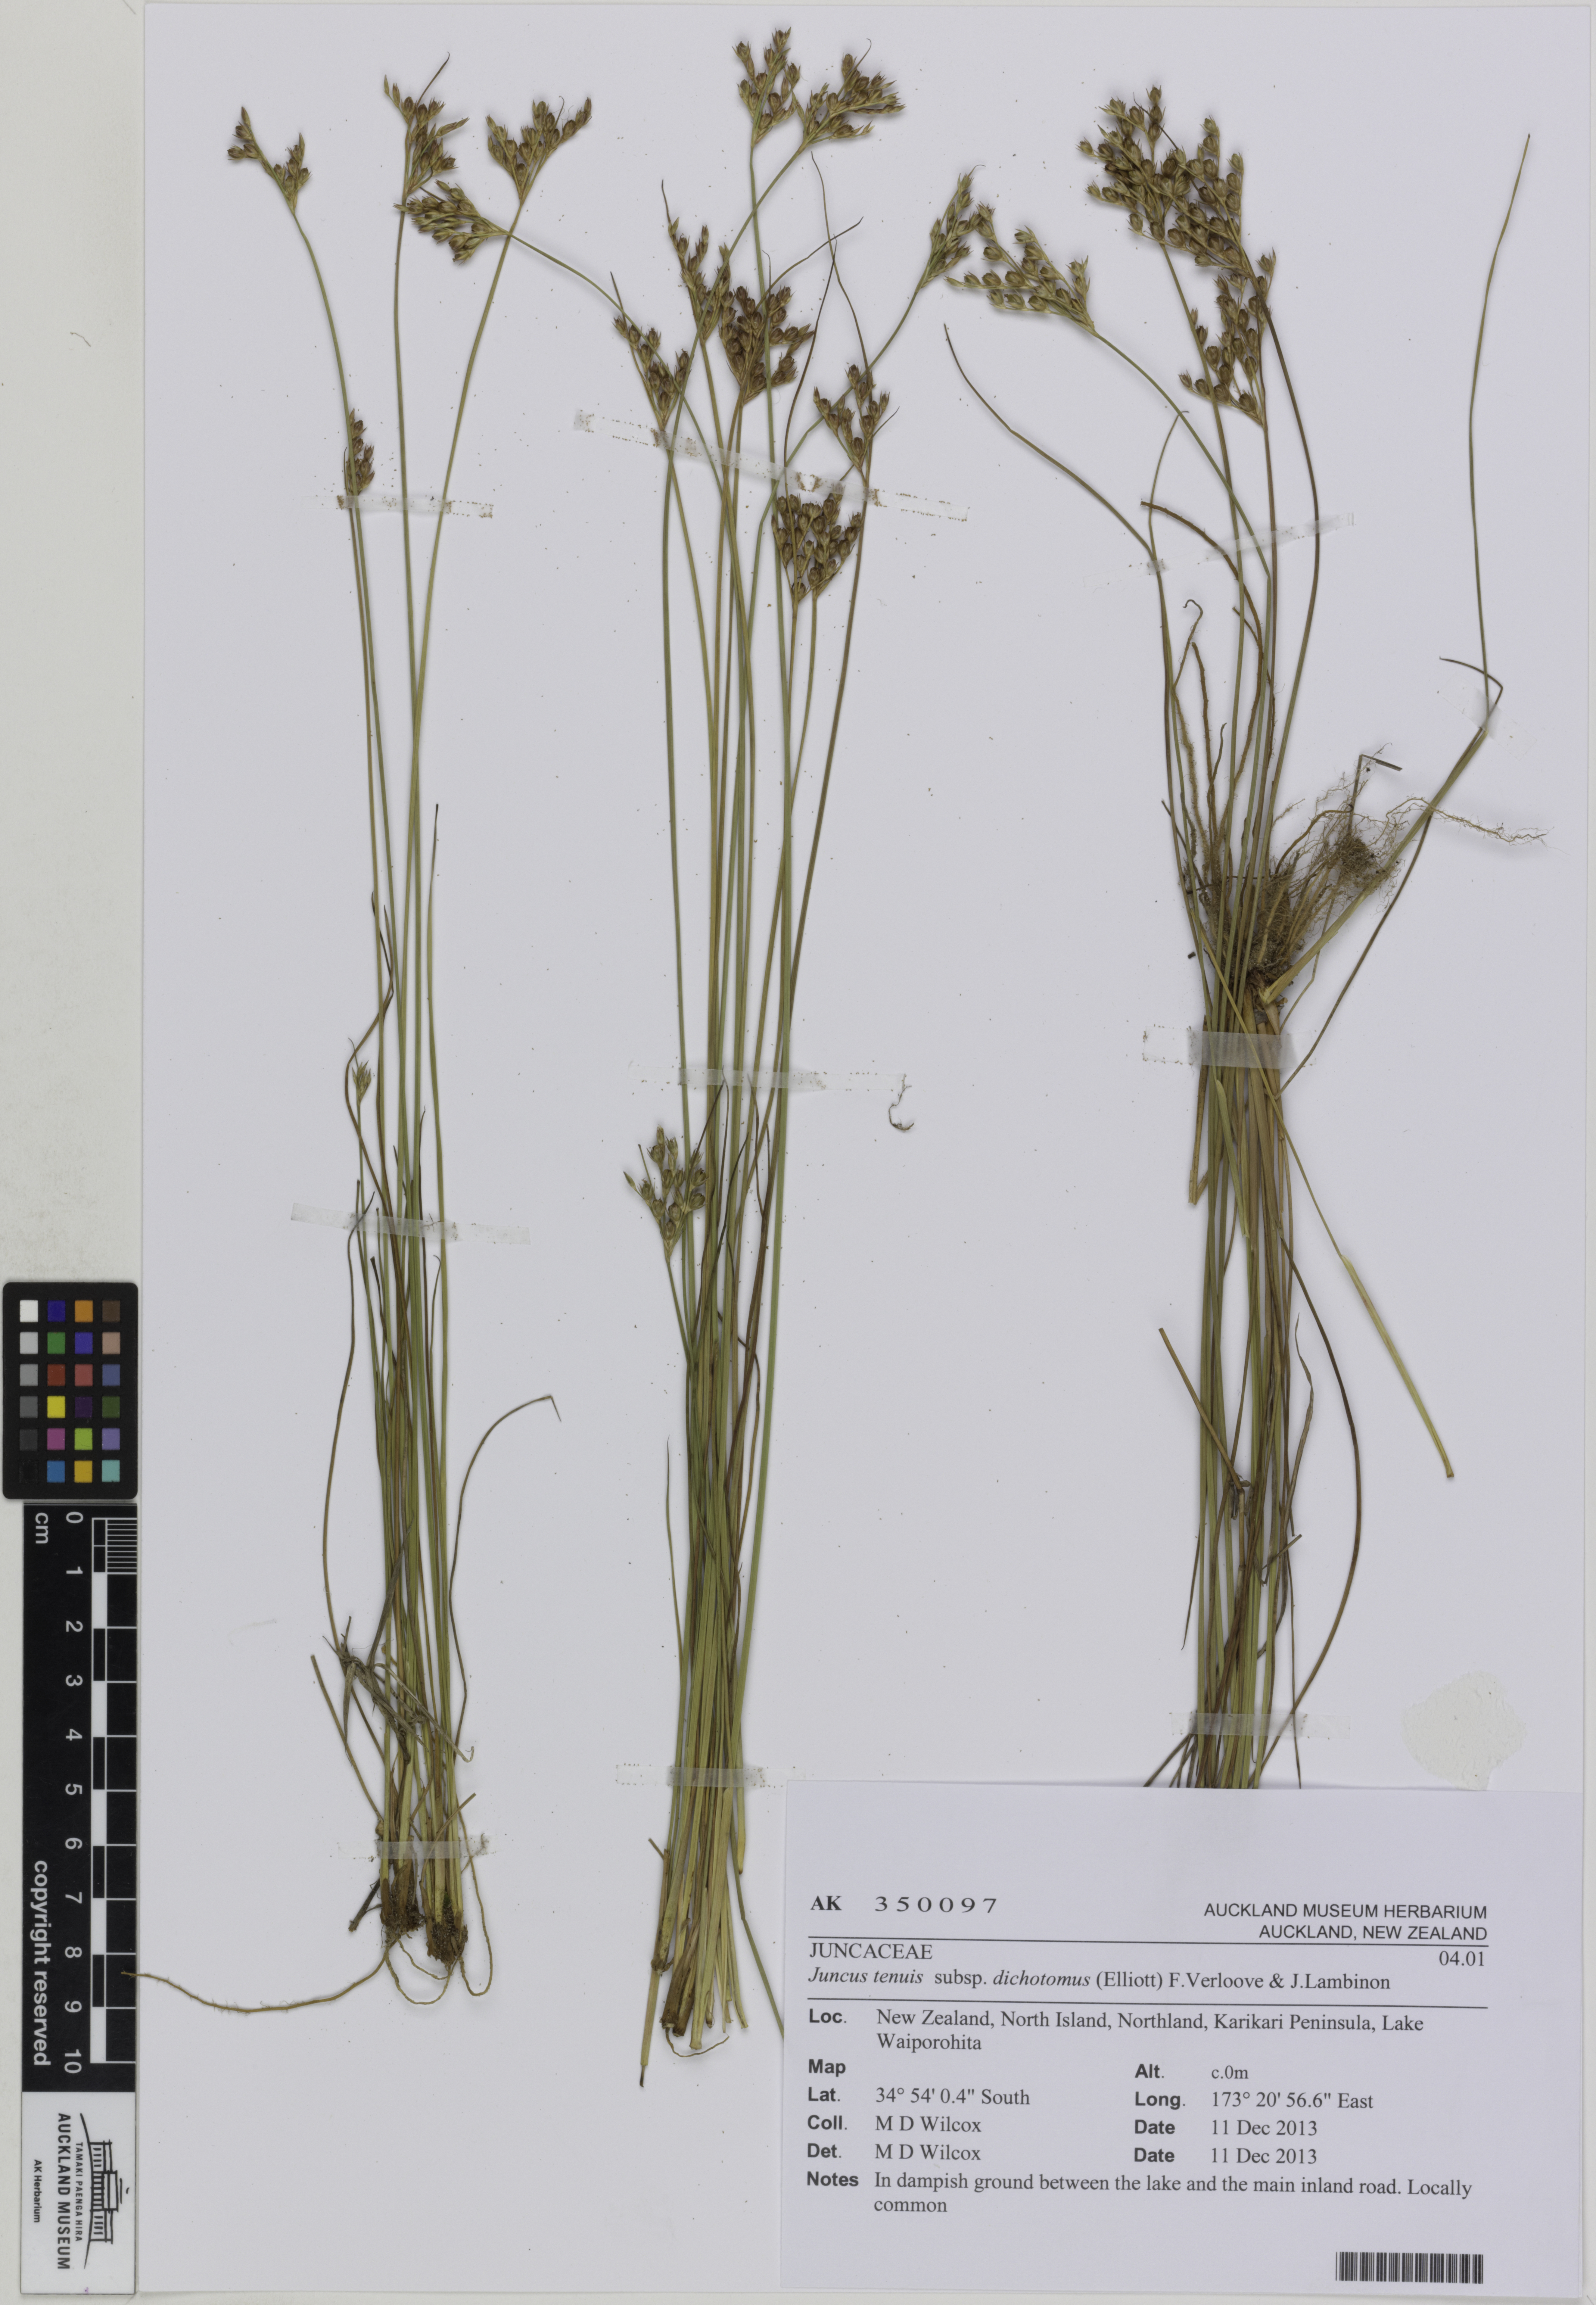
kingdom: Plantae
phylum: Tracheophyta
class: Liliopsida
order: Poales
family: Juncaceae
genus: Juncus
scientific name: Juncus dichotomus
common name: Forked rush
